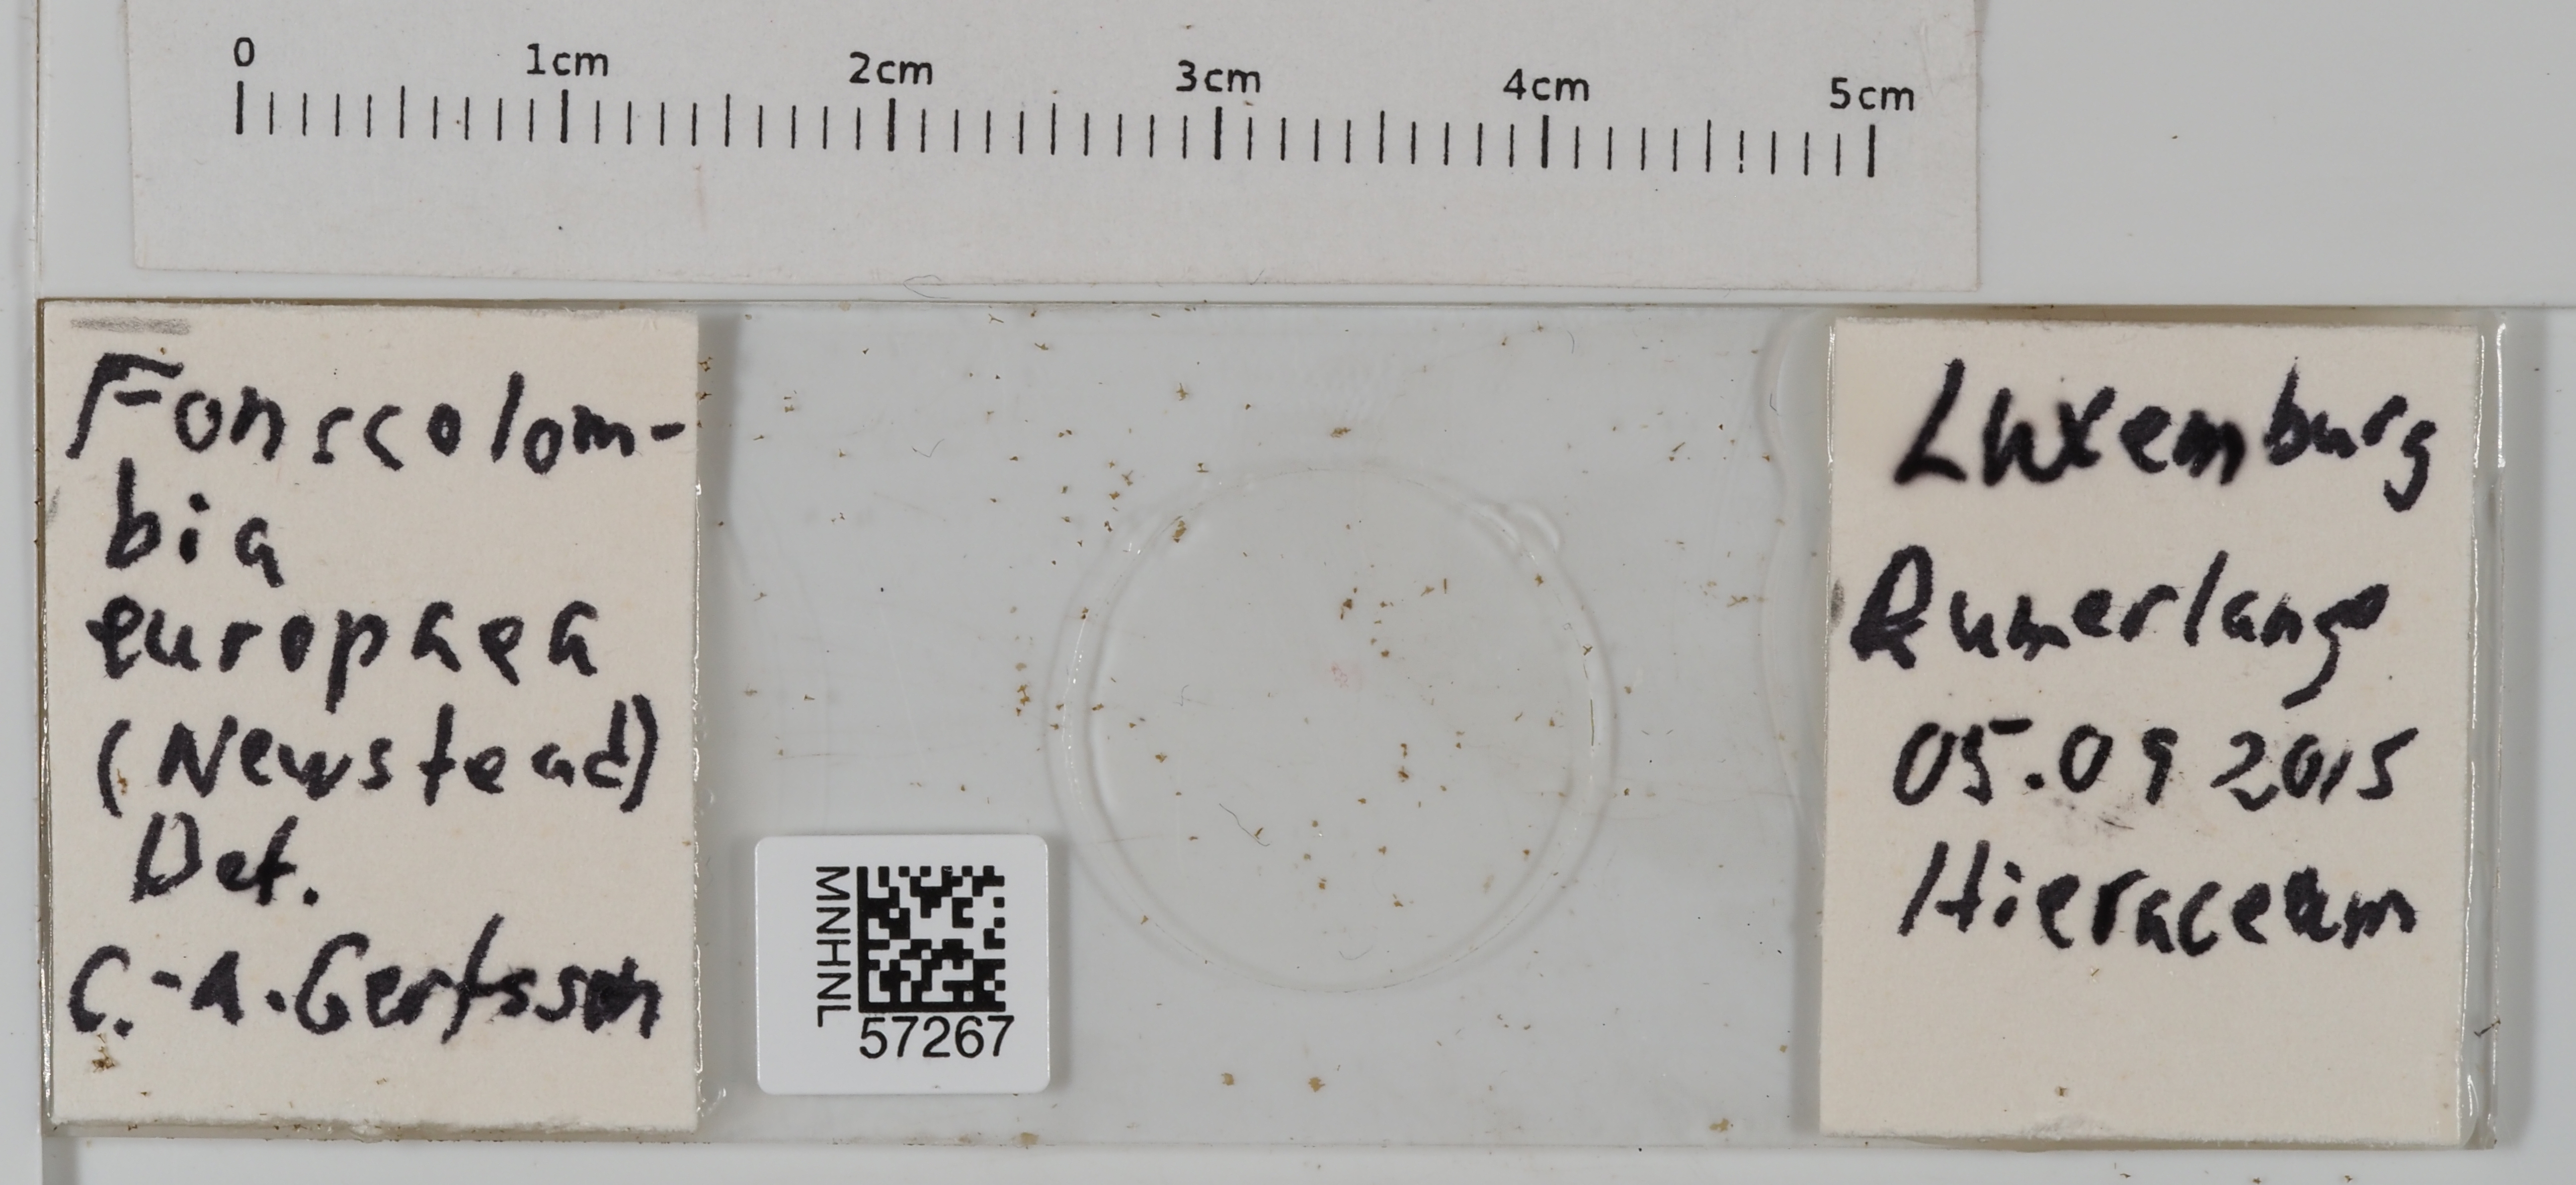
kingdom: Animalia
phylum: Arthropoda
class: Insecta
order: Hemiptera
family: Pseudococcidae
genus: Euripersia
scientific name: Euripersia europaea
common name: Grass mealybug
